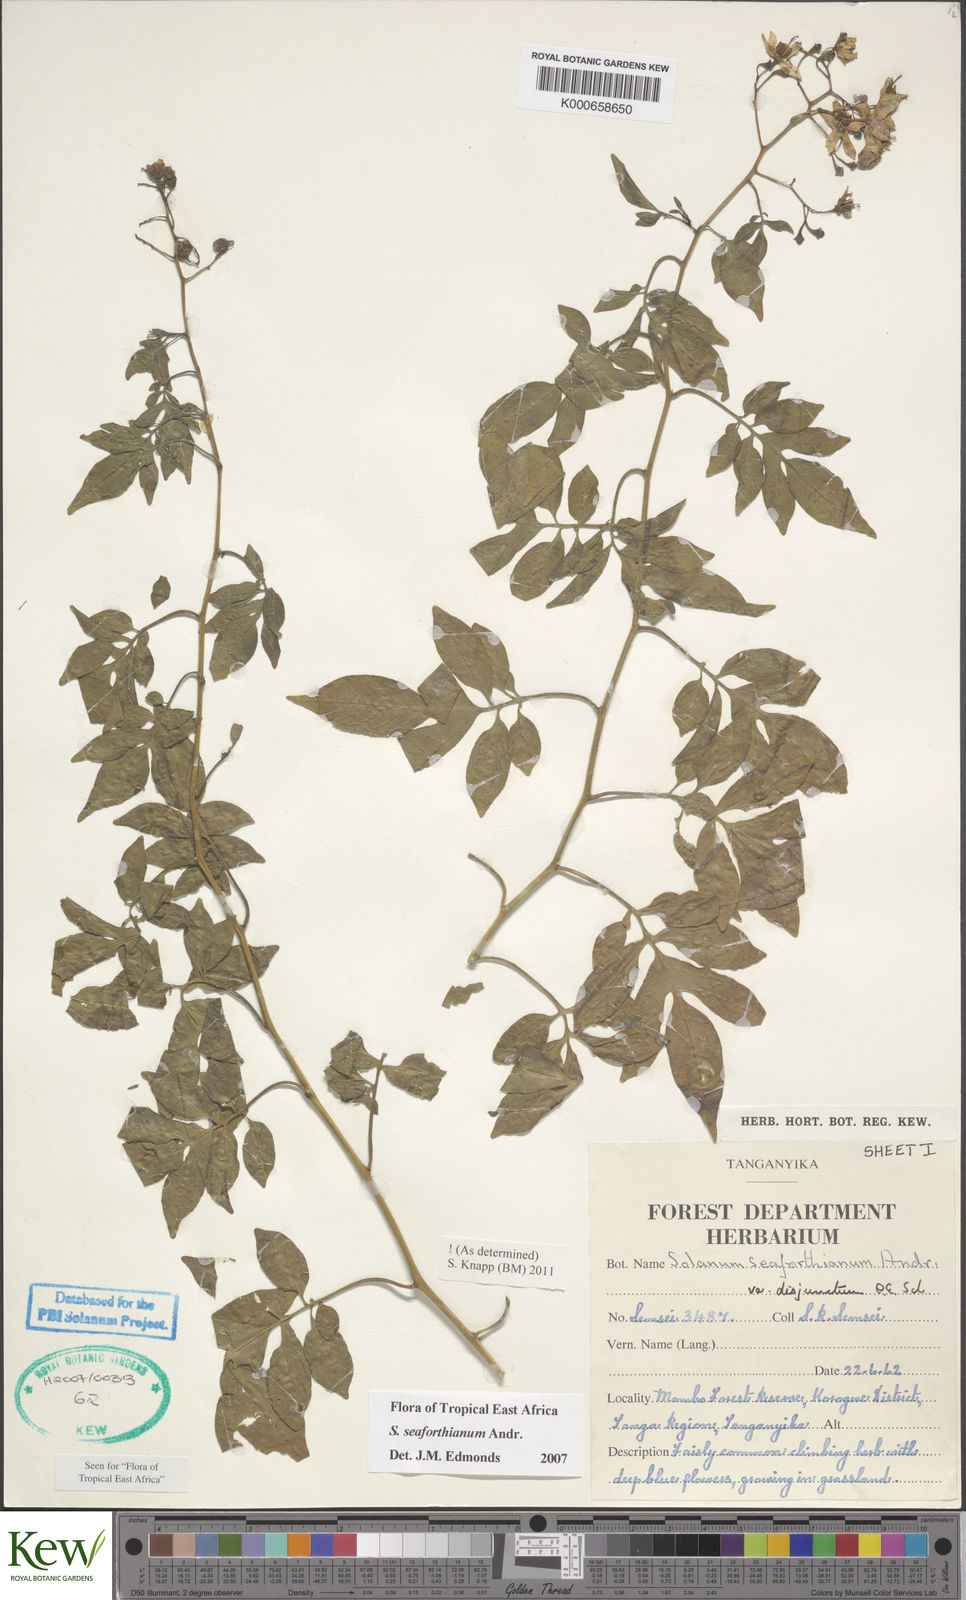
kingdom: Plantae
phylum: Tracheophyta
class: Magnoliopsida
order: Solanales
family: Solanaceae
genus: Solanum
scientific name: Solanum seaforthianum
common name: Brazilian nightshade
